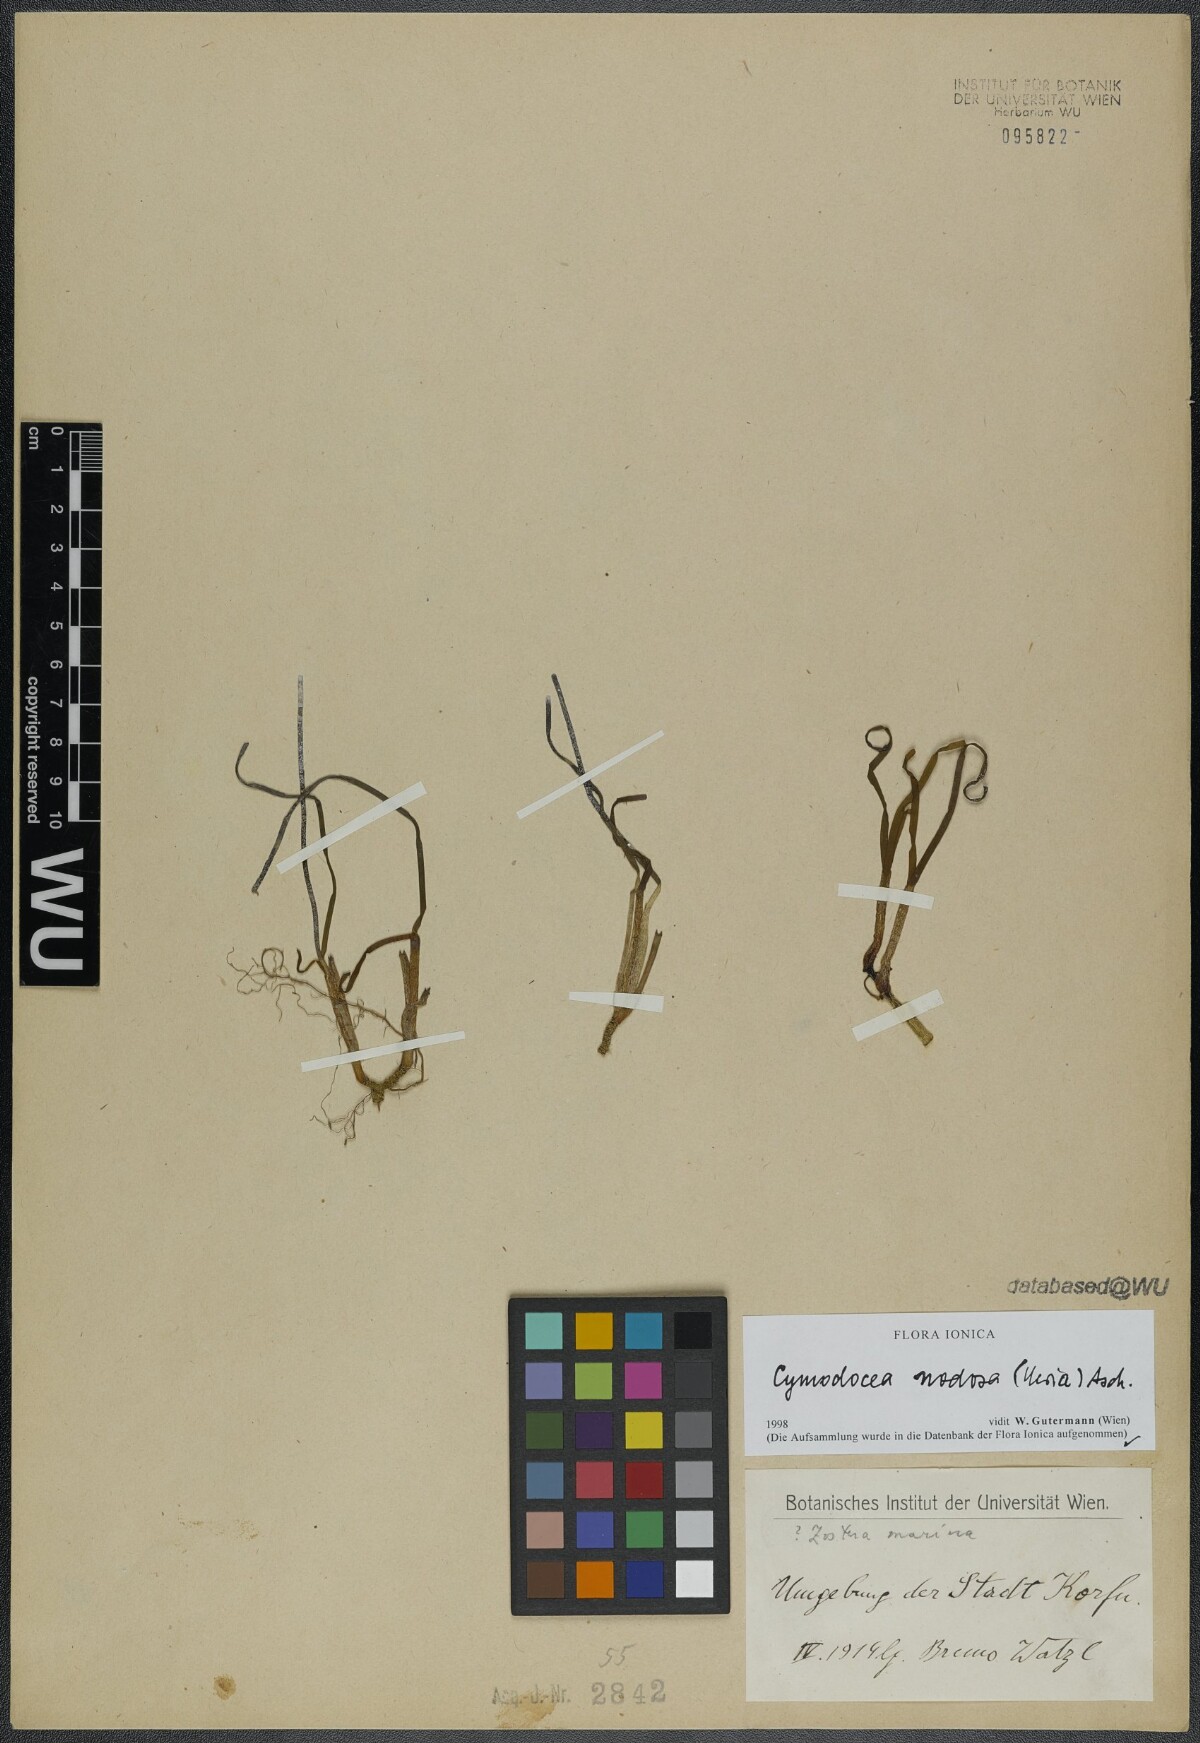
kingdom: Plantae
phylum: Tracheophyta
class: Liliopsida
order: Alismatales
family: Cymodoceaceae
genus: Cymodocea
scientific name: Cymodocea nodosa
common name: Slender seagrass
